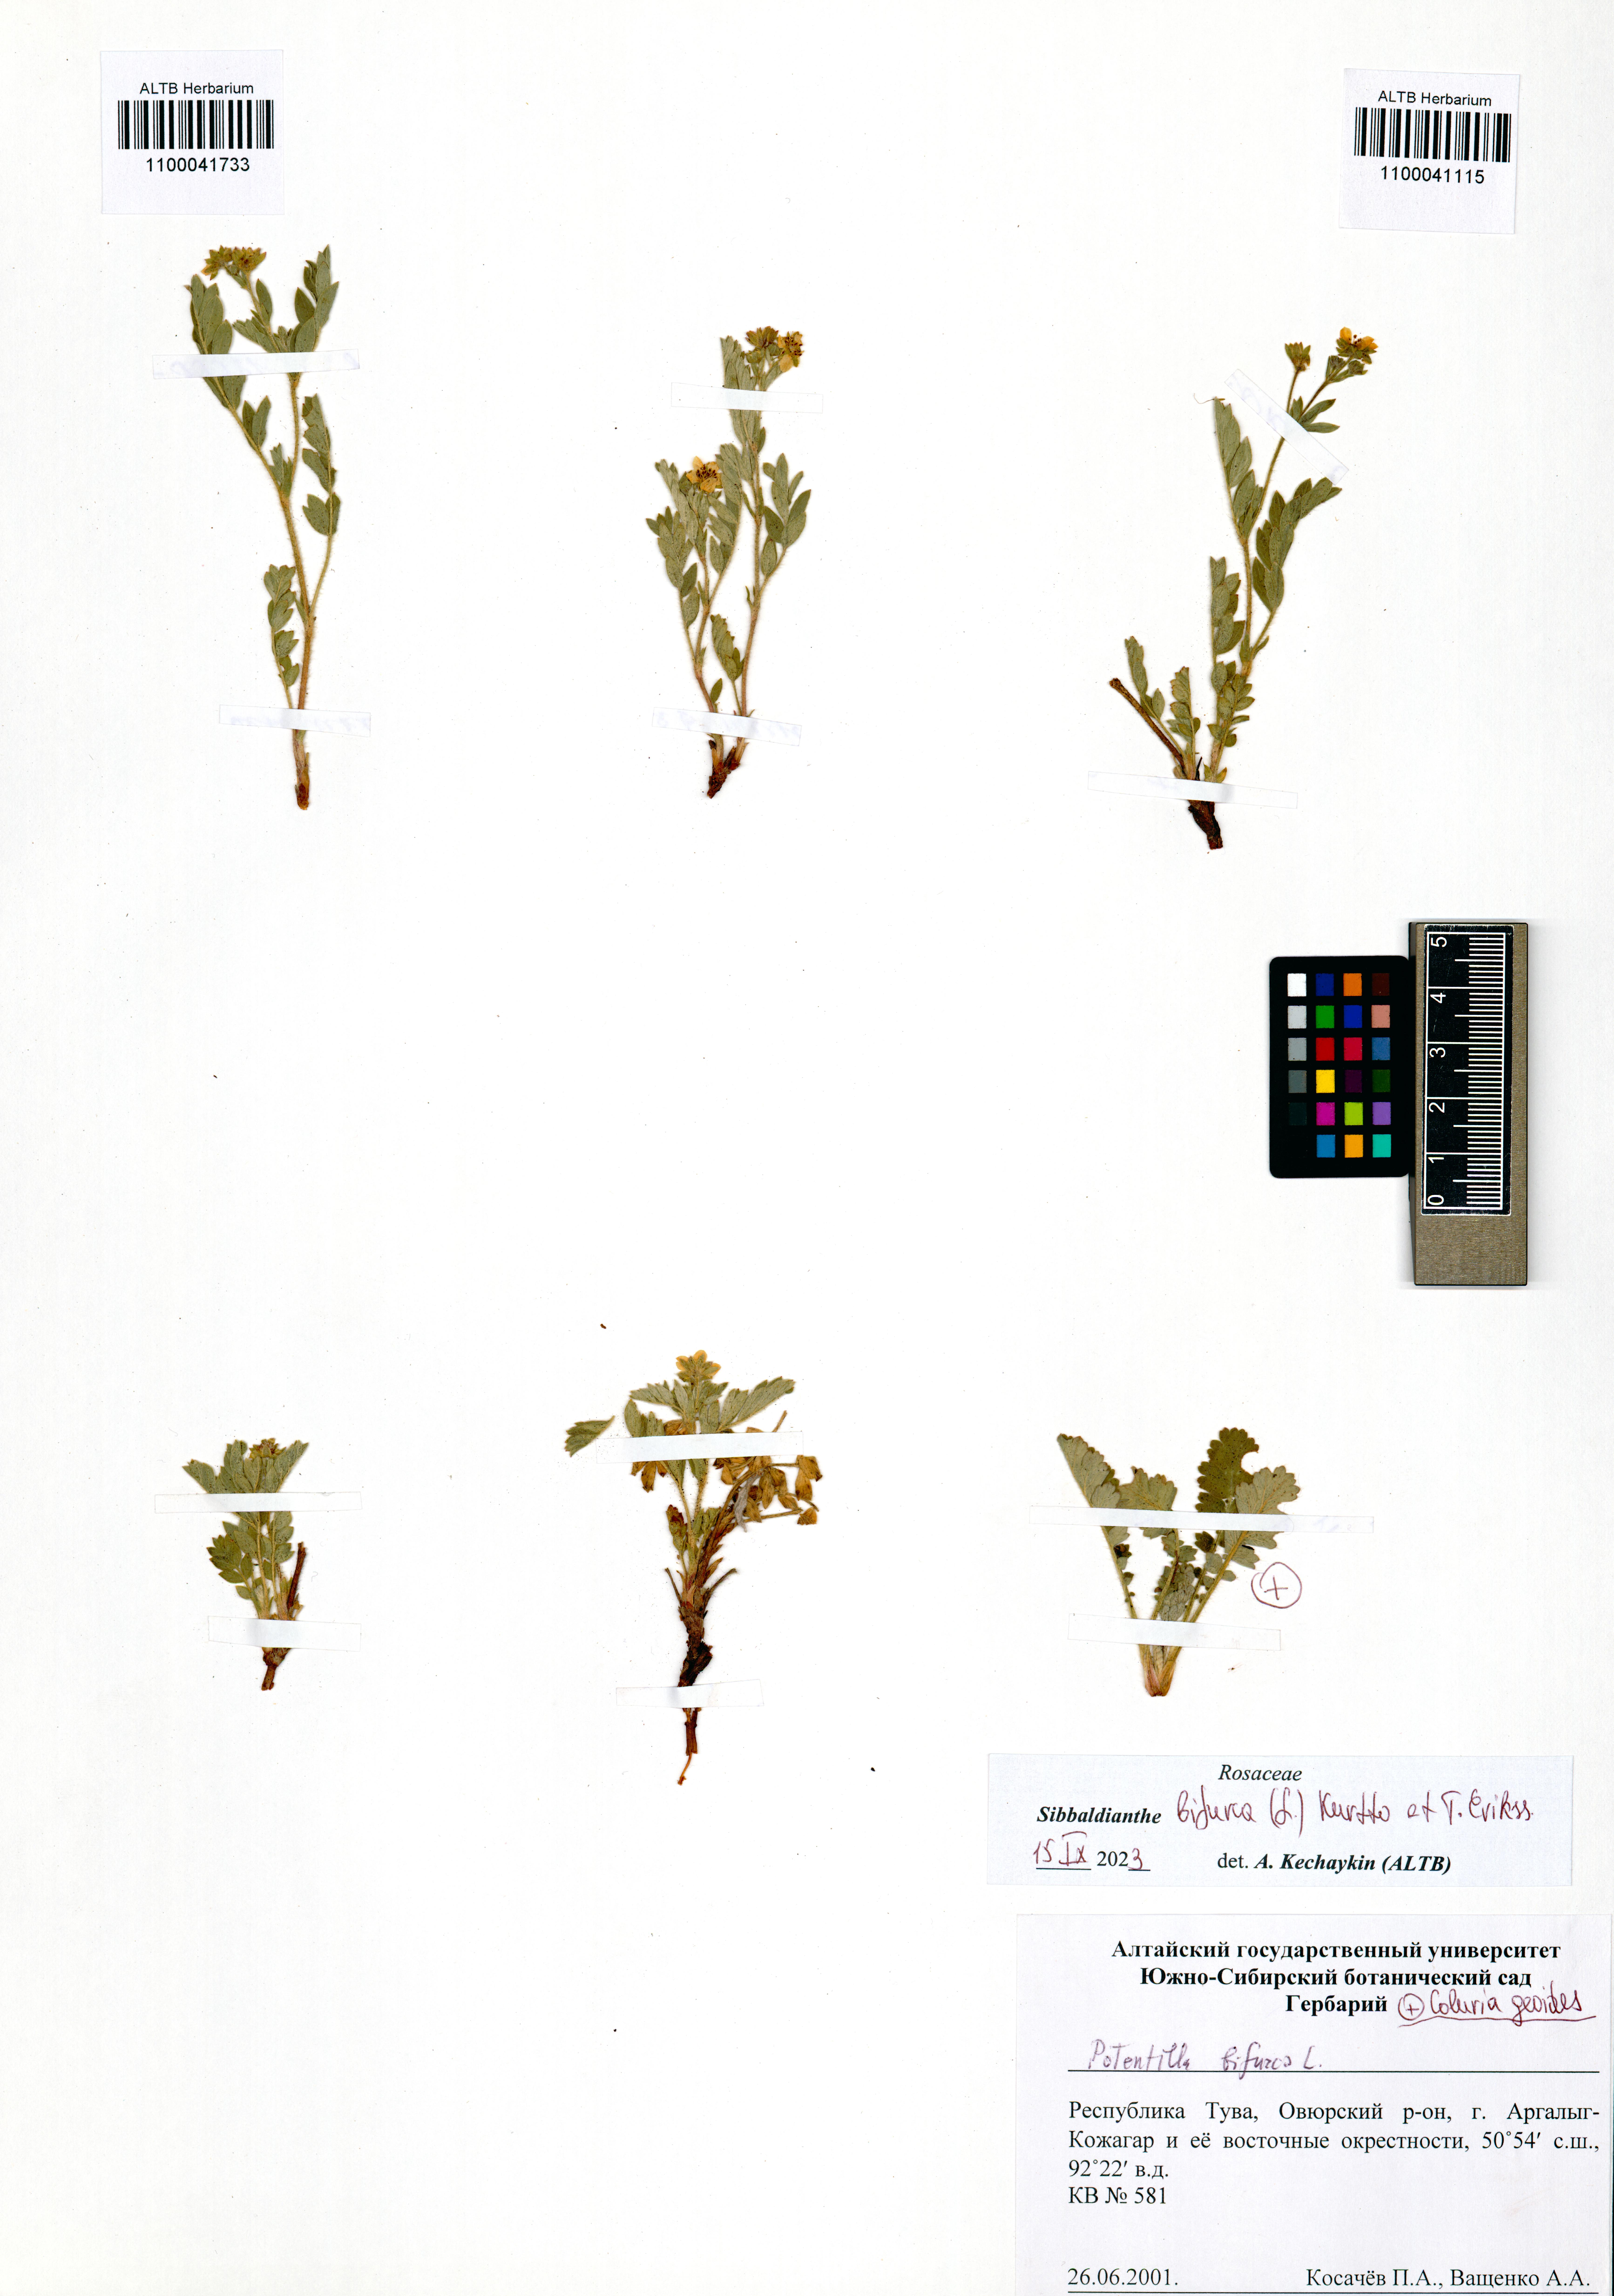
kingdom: Plantae
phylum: Tracheophyta
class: Magnoliopsida
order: Rosales
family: Rosaceae
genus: Sibbaldianthe
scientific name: Sibbaldianthe bifurca
